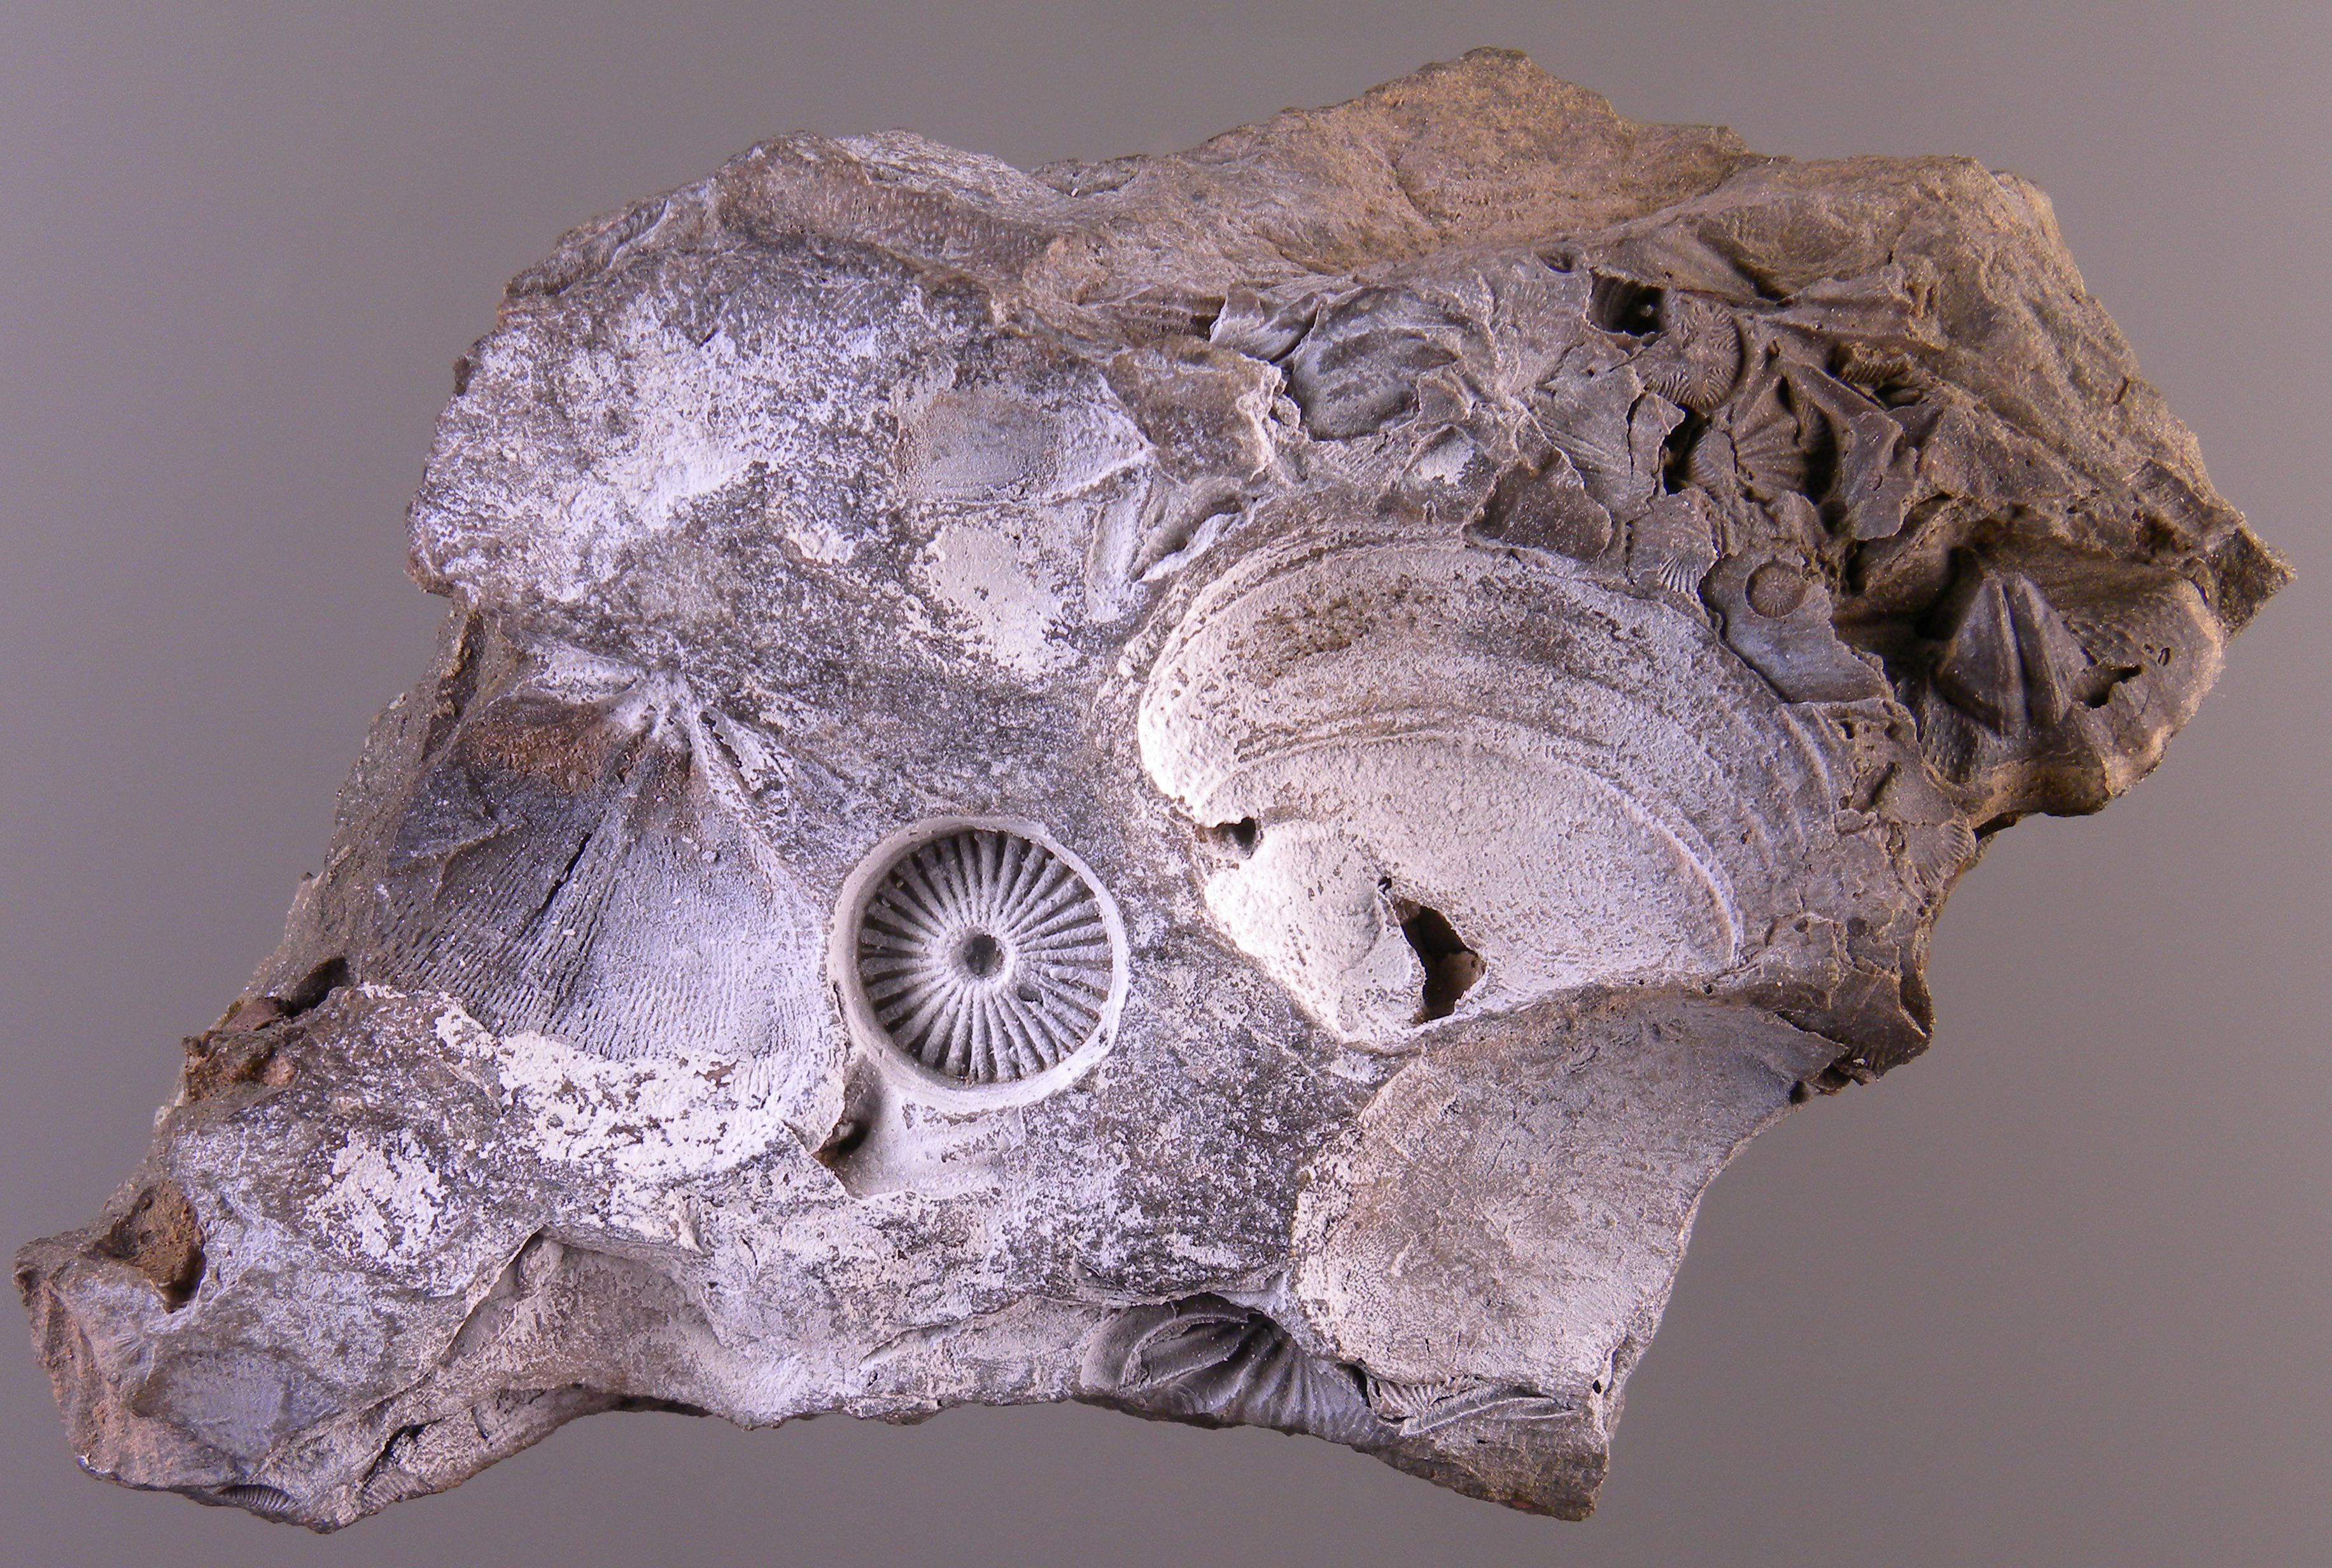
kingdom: Animalia
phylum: Echinodermata
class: Crinoidea
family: Flucticharacidae
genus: Laudonomphalus
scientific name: Laudonomphalus
